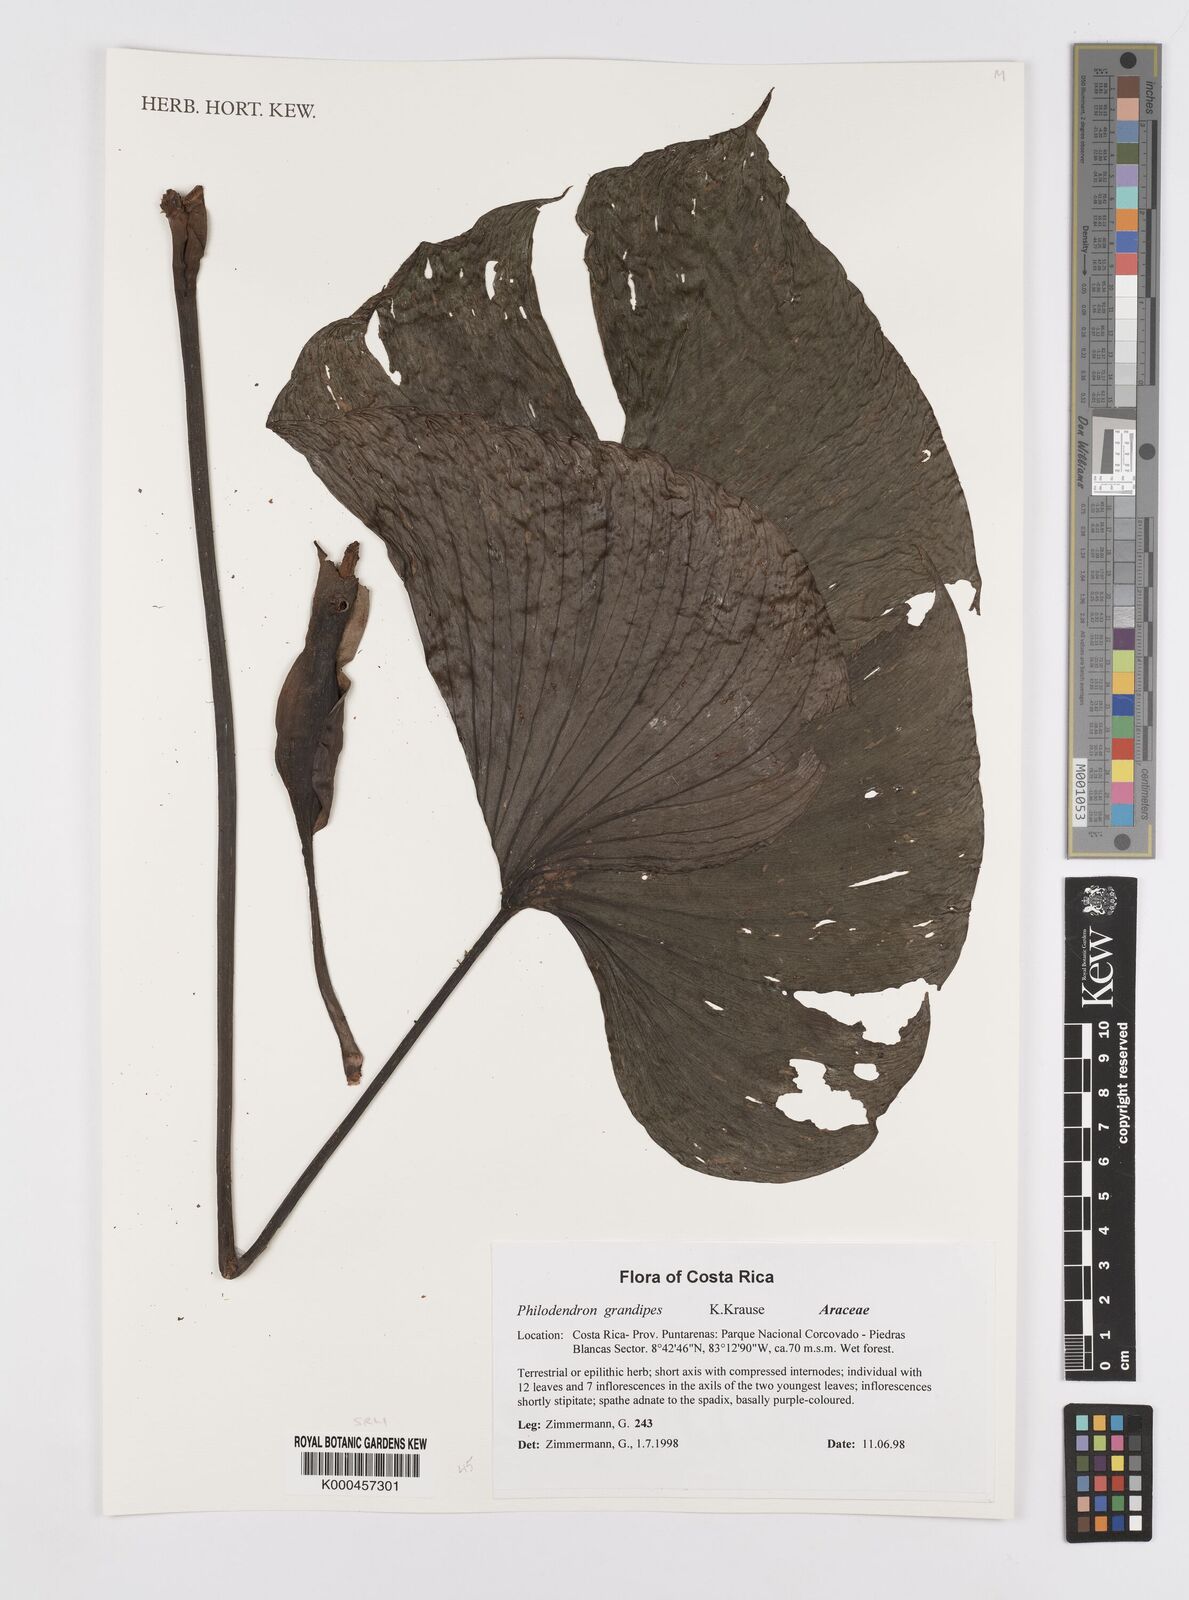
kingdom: Plantae
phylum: Tracheophyta
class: Liliopsida
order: Alismatales
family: Araceae
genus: Philodendron
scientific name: Philodendron grandipes
